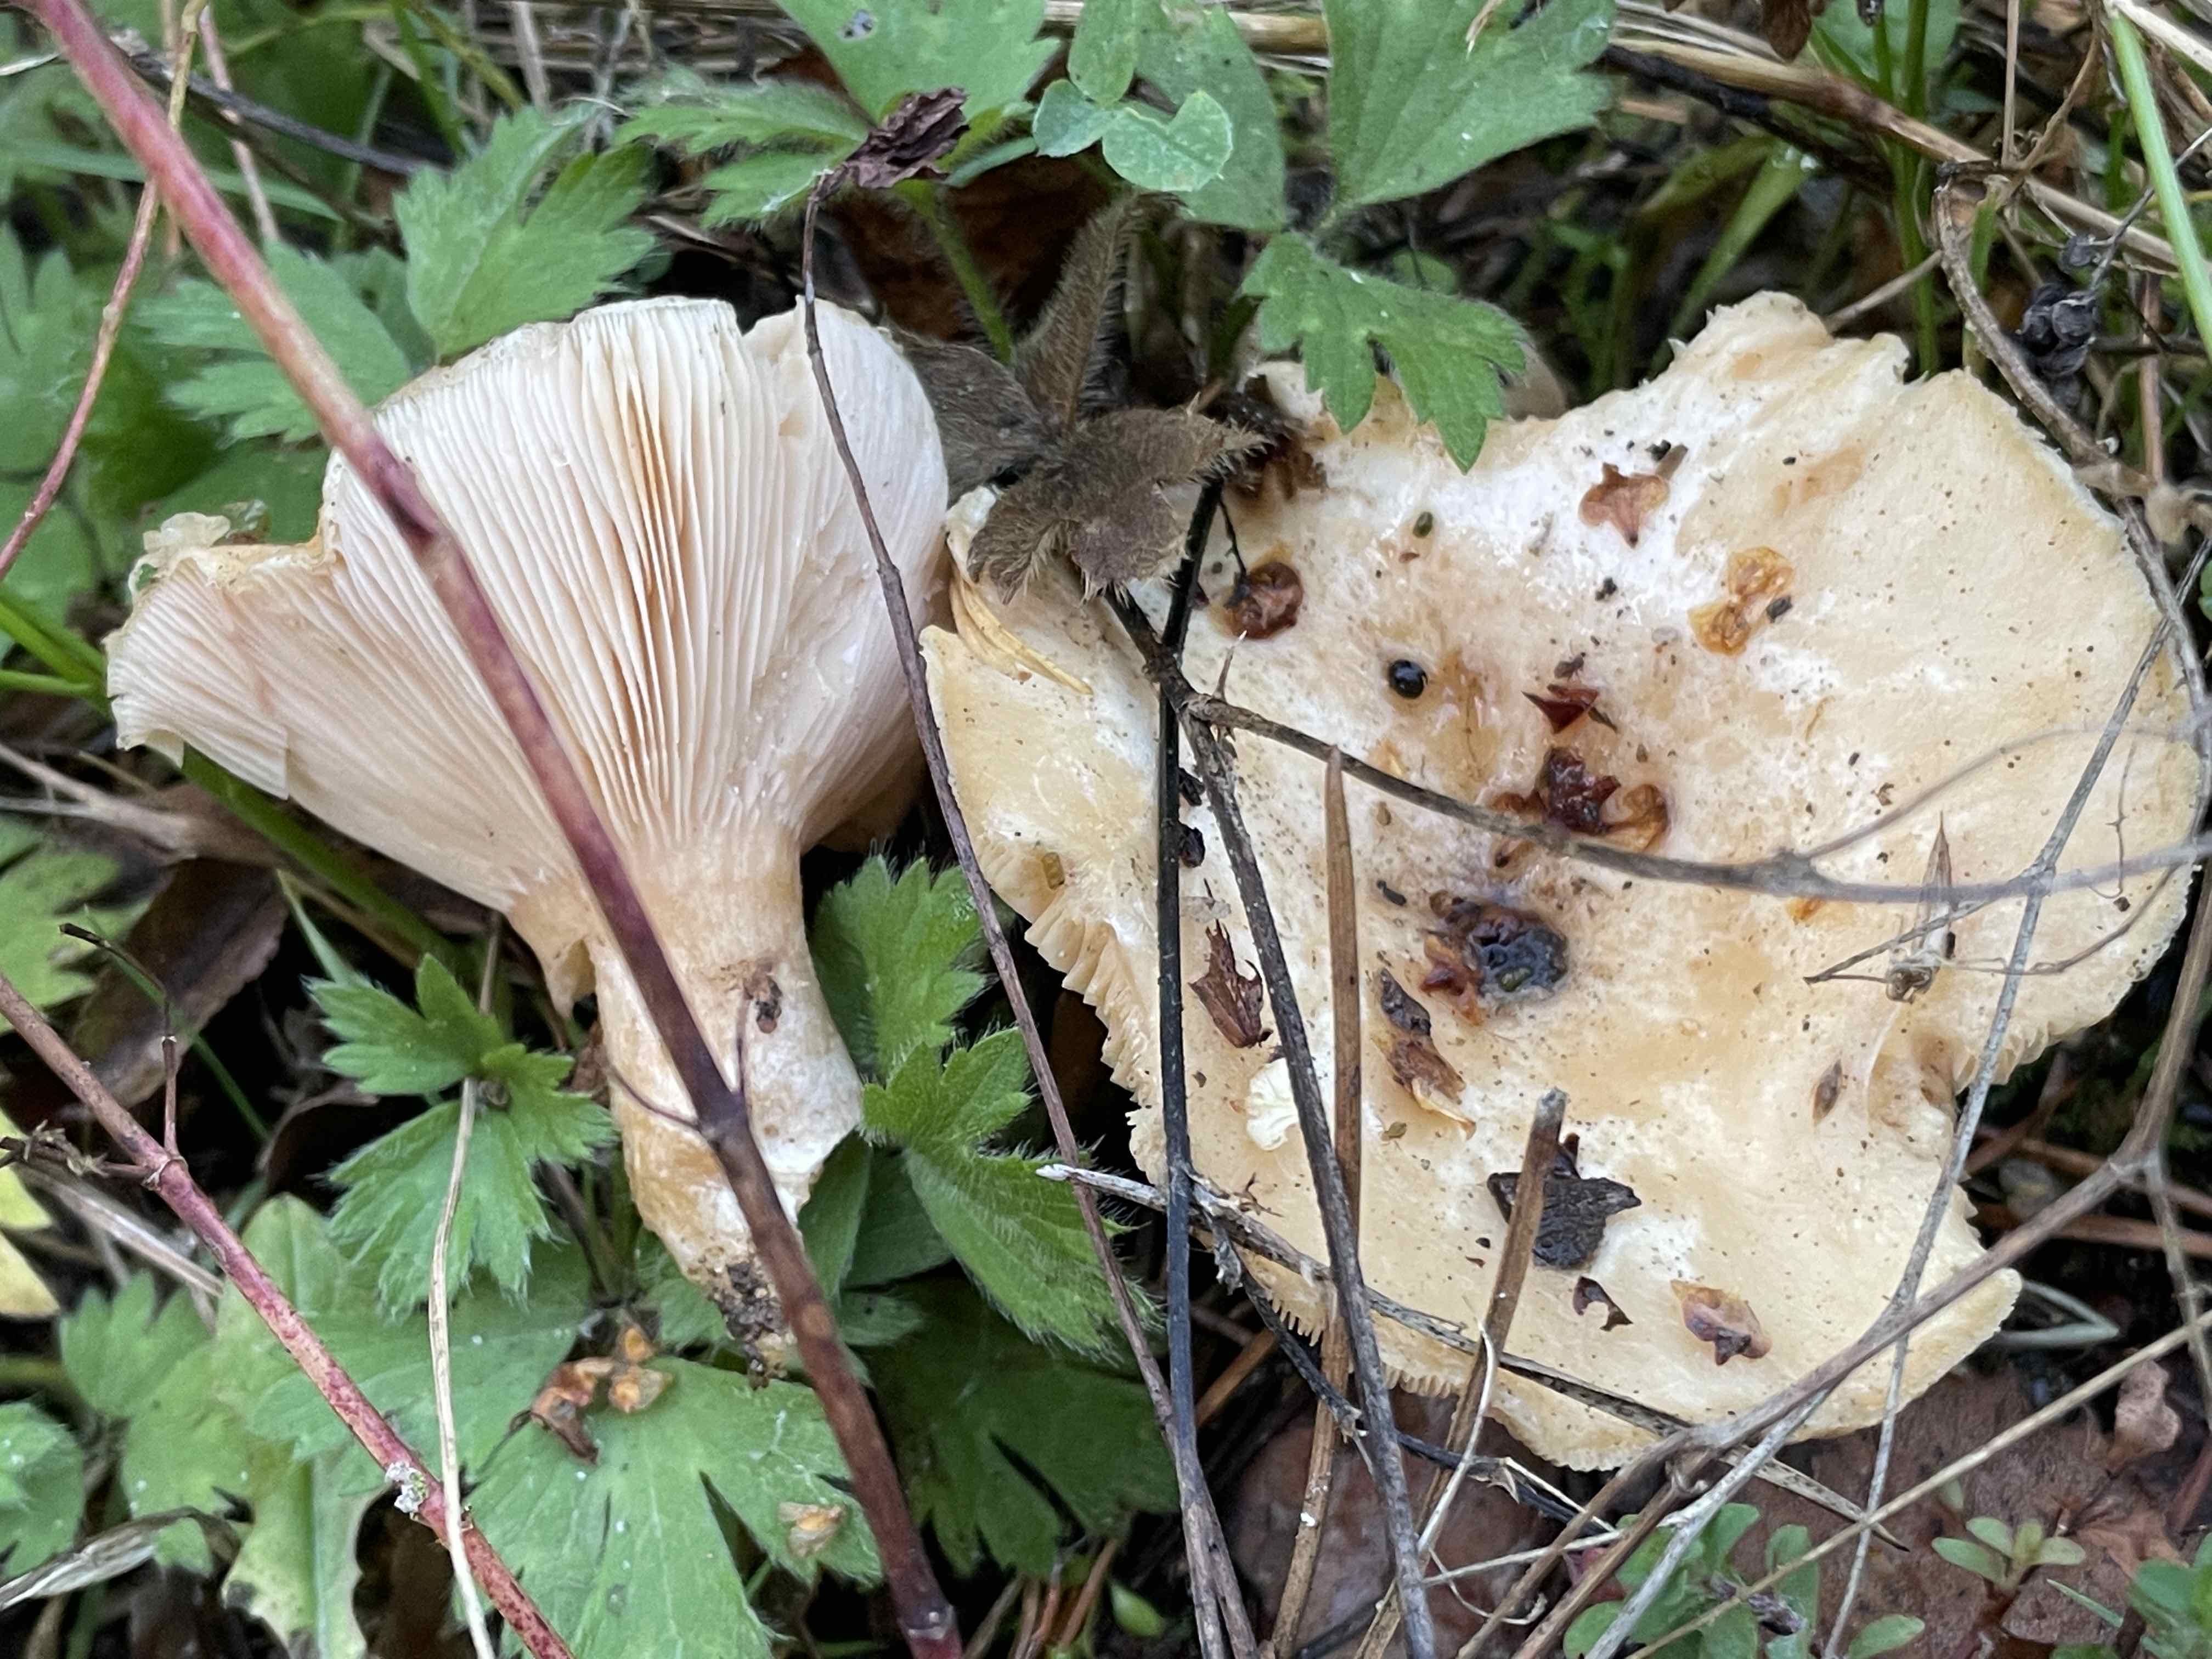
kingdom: Fungi
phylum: Basidiomycota
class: Agaricomycetes
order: Russulales
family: Russulaceae
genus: Lactarius
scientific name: Lactarius pubescens
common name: dunet mælkehat
